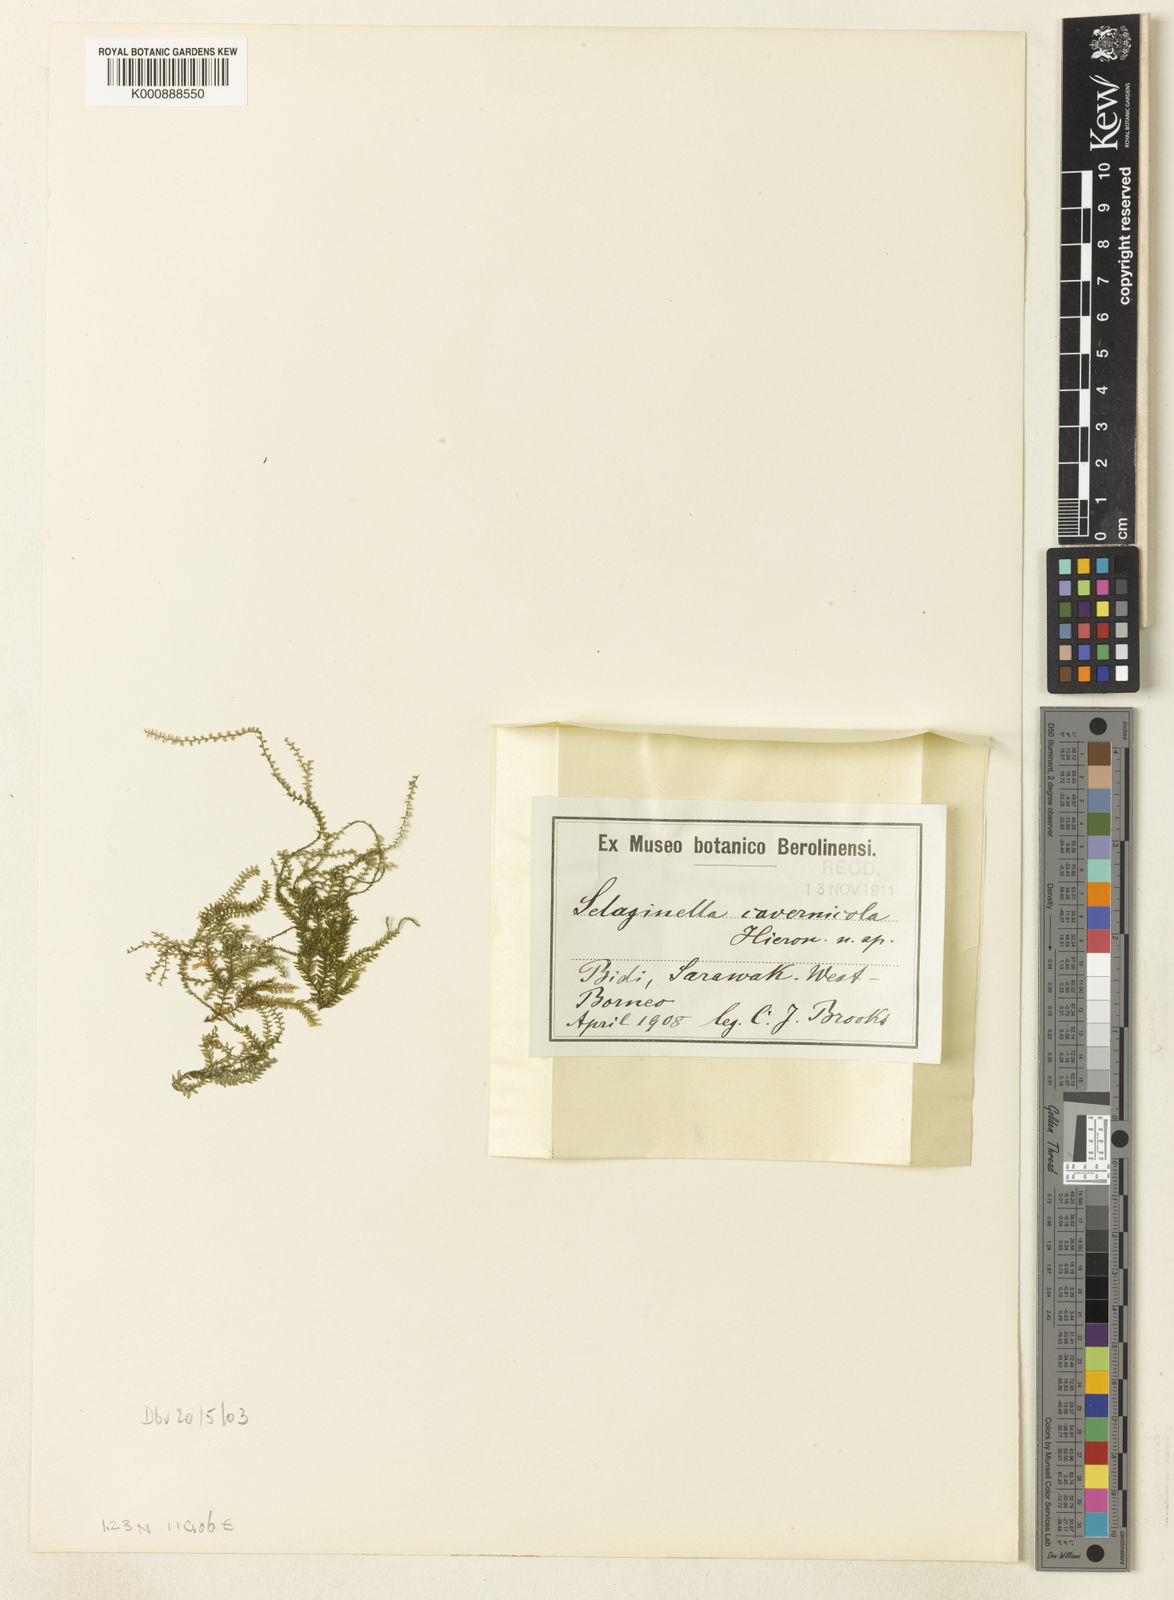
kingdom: Plantae
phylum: Tracheophyta
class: Lycopodiopsida
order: Selaginellales
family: Selaginellaceae
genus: Selaginella
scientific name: Selaginella
